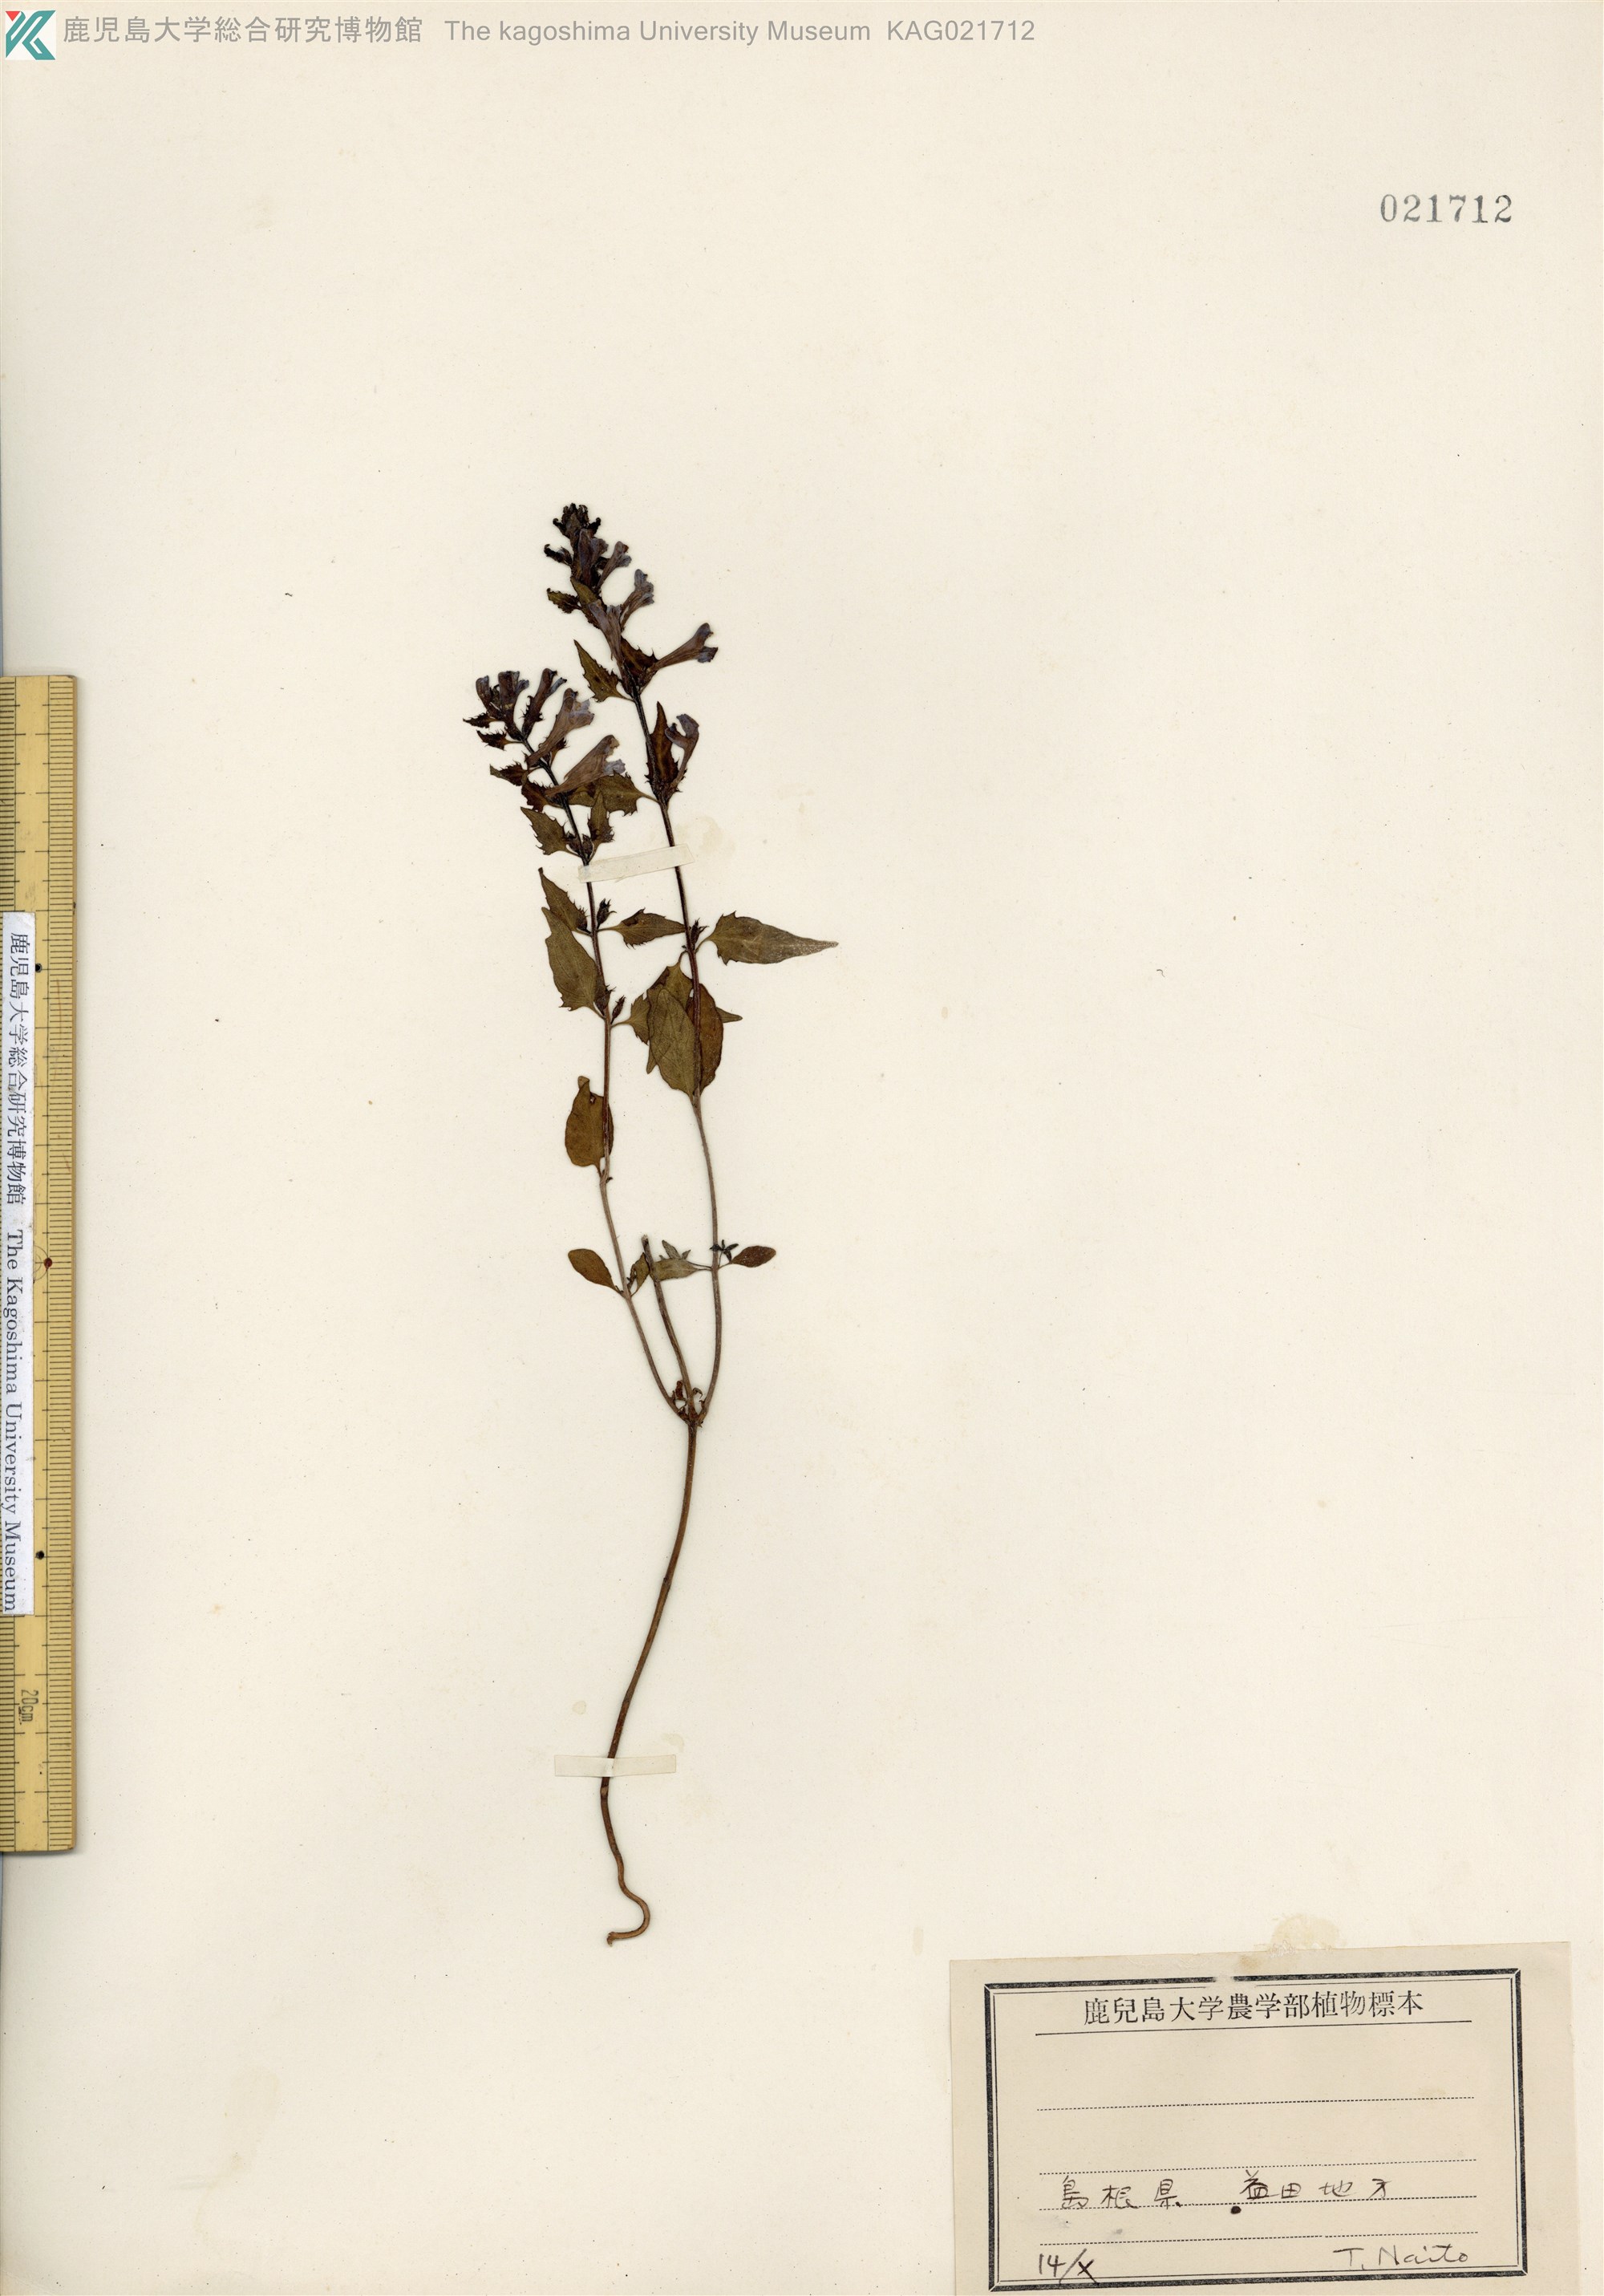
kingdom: Plantae
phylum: Tracheophyta
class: Magnoliopsida
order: Lamiales
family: Orobanchaceae
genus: Melampyrum
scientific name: Melampyrum roseum
